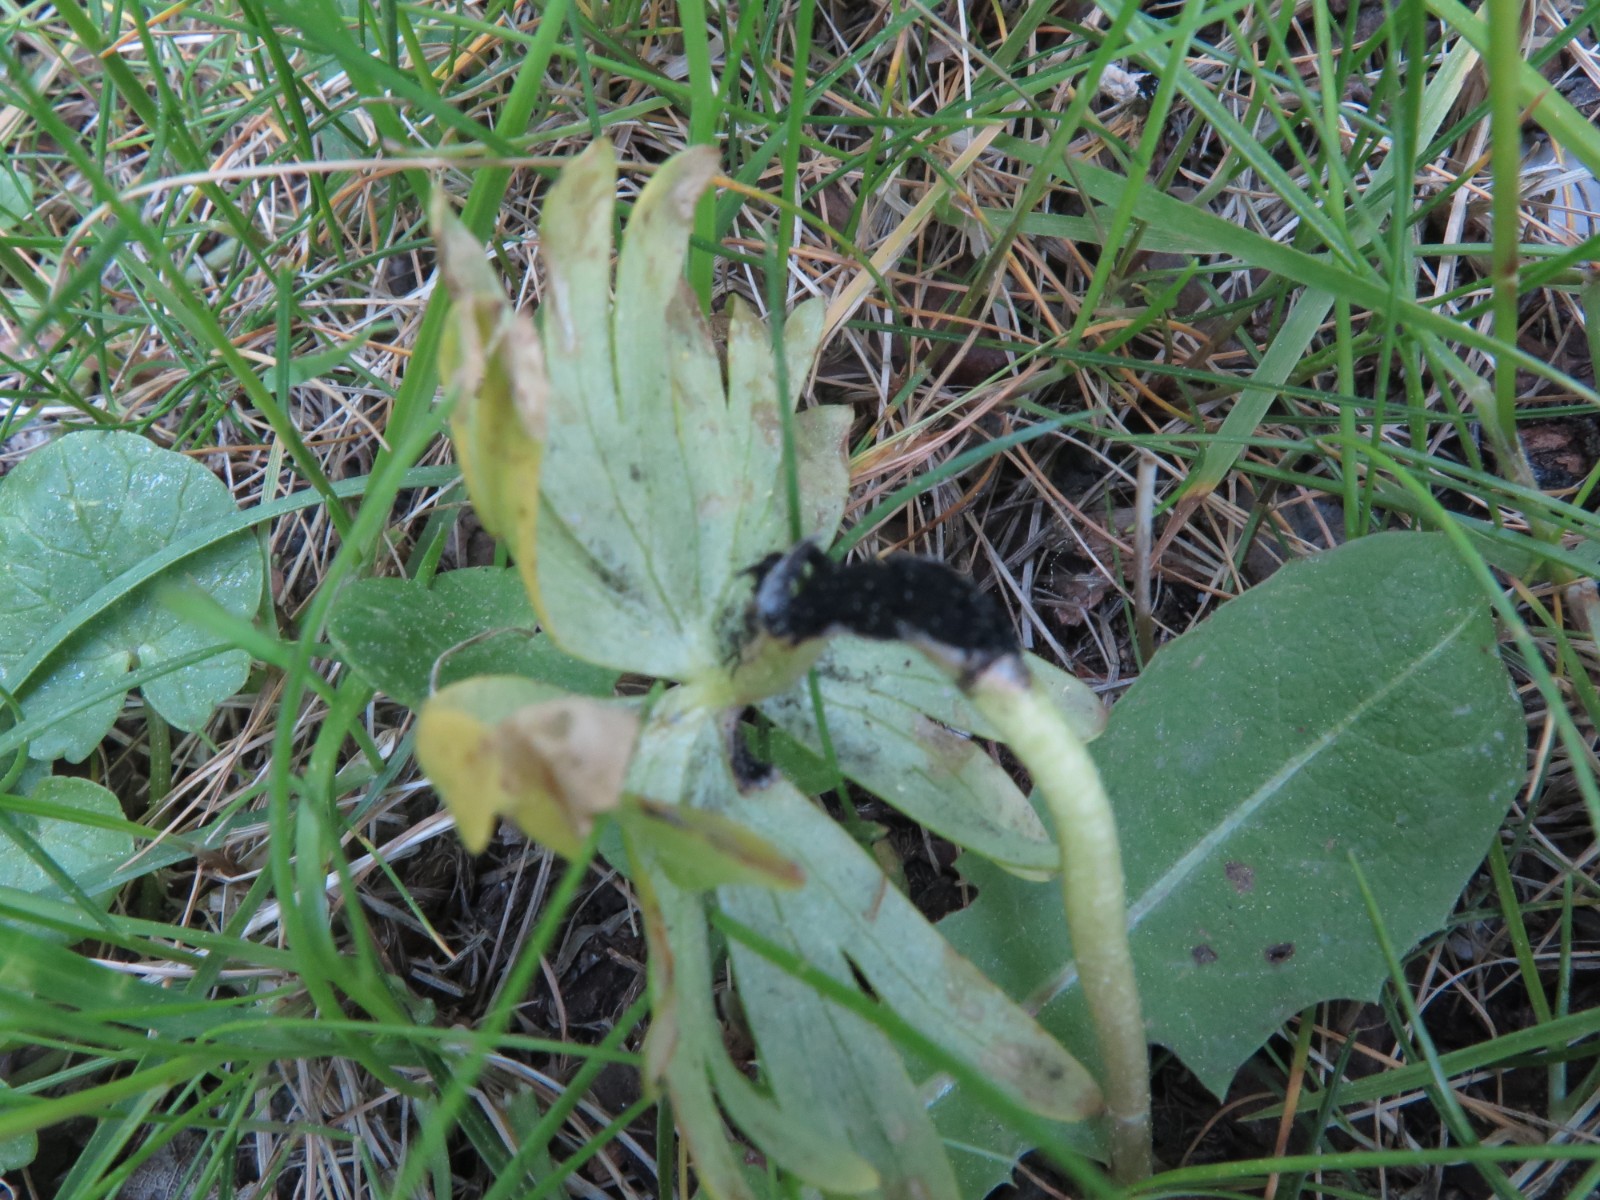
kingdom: Fungi
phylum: Basidiomycota
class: Ustilaginomycetes
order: Urocystidales
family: Urocystidaceae
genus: Urocystis
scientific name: Urocystis eranthidis
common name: erantis-brand
